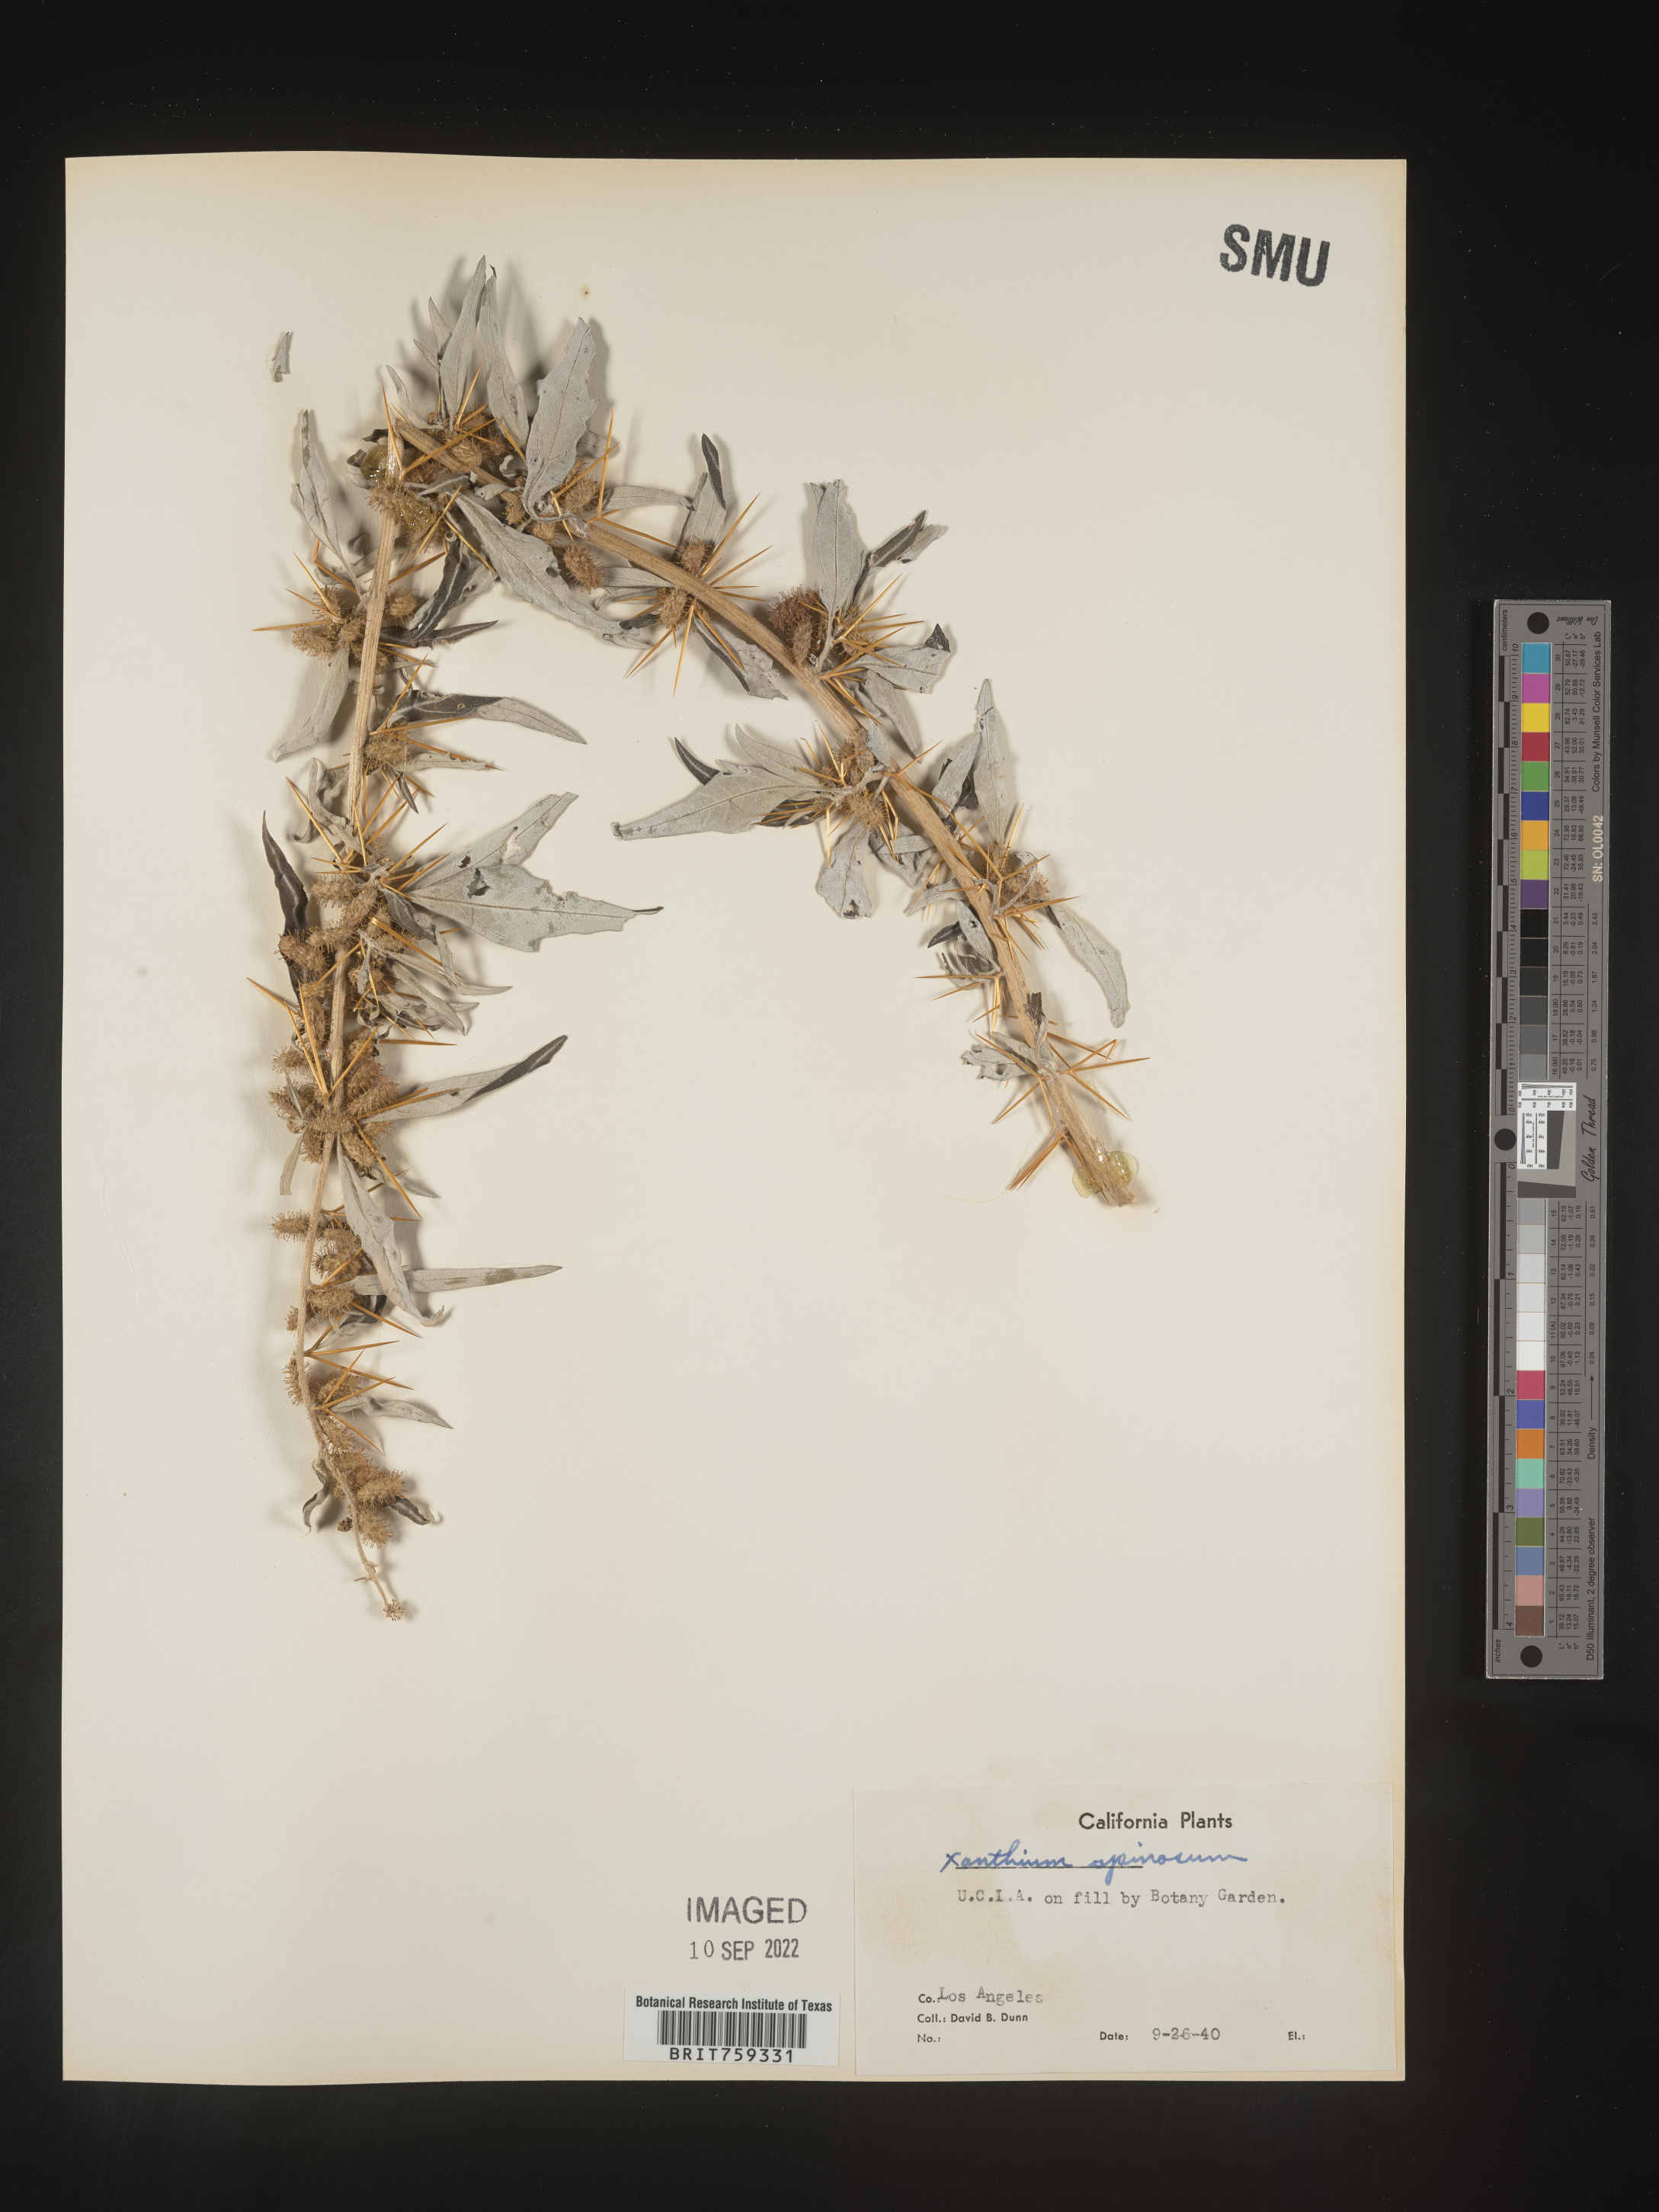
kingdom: Plantae
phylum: Tracheophyta
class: Magnoliopsida
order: Asterales
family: Asteraceae
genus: Xanthium
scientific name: Xanthium spinosum
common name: Spiny cocklebur
